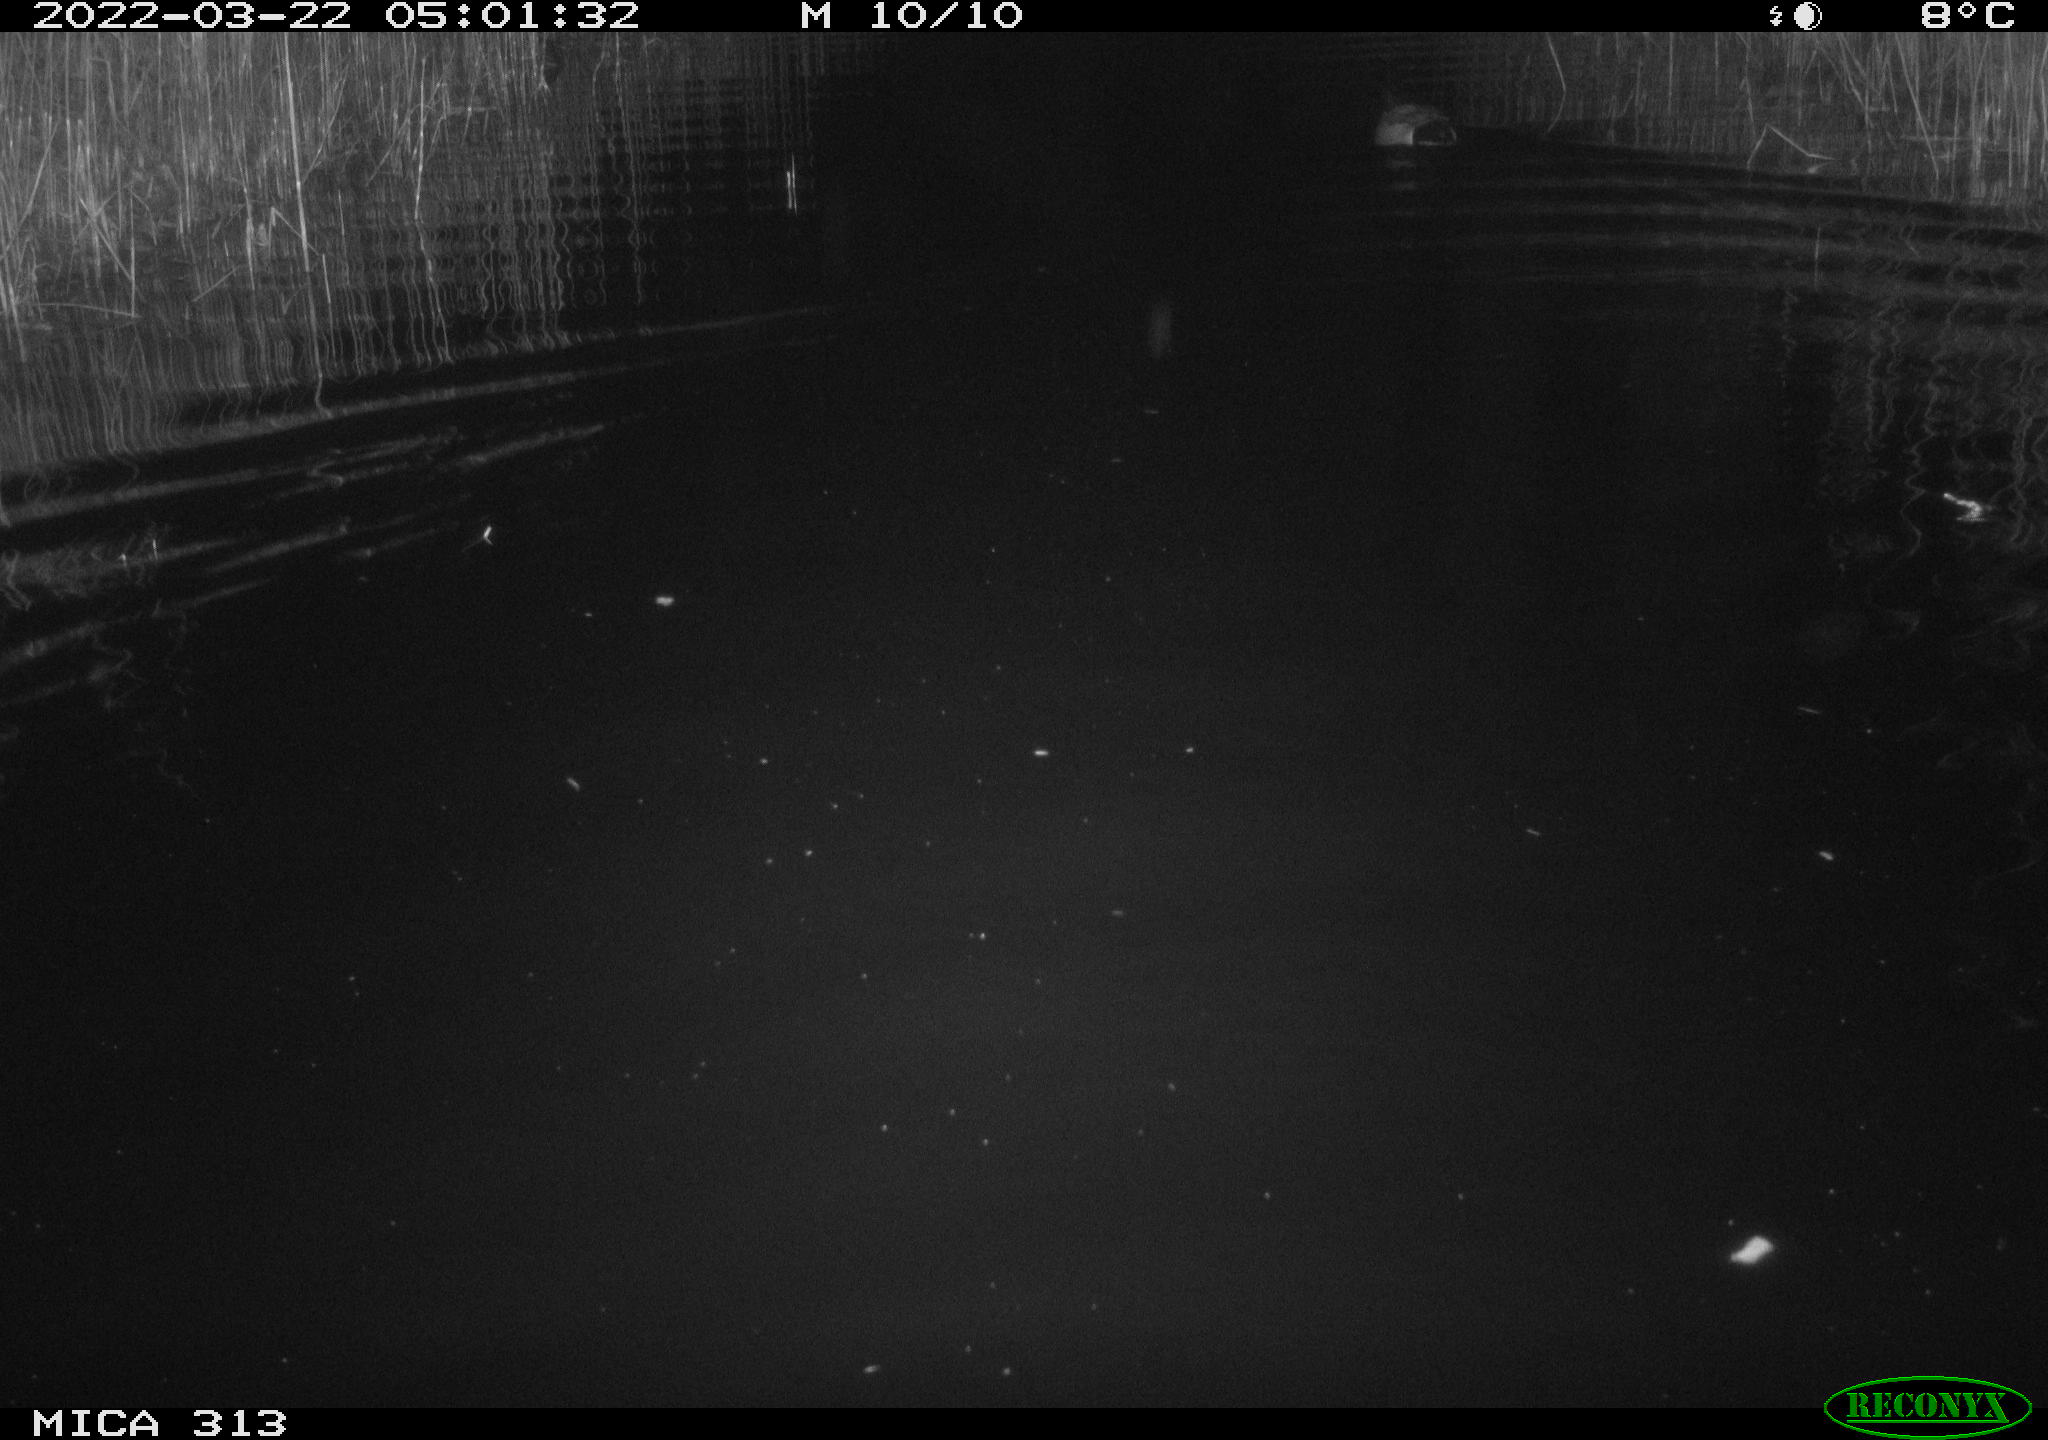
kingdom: Animalia
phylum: Chordata
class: Aves
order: Anseriformes
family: Anatidae
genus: Anas
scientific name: Anas platyrhynchos
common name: Mallard
